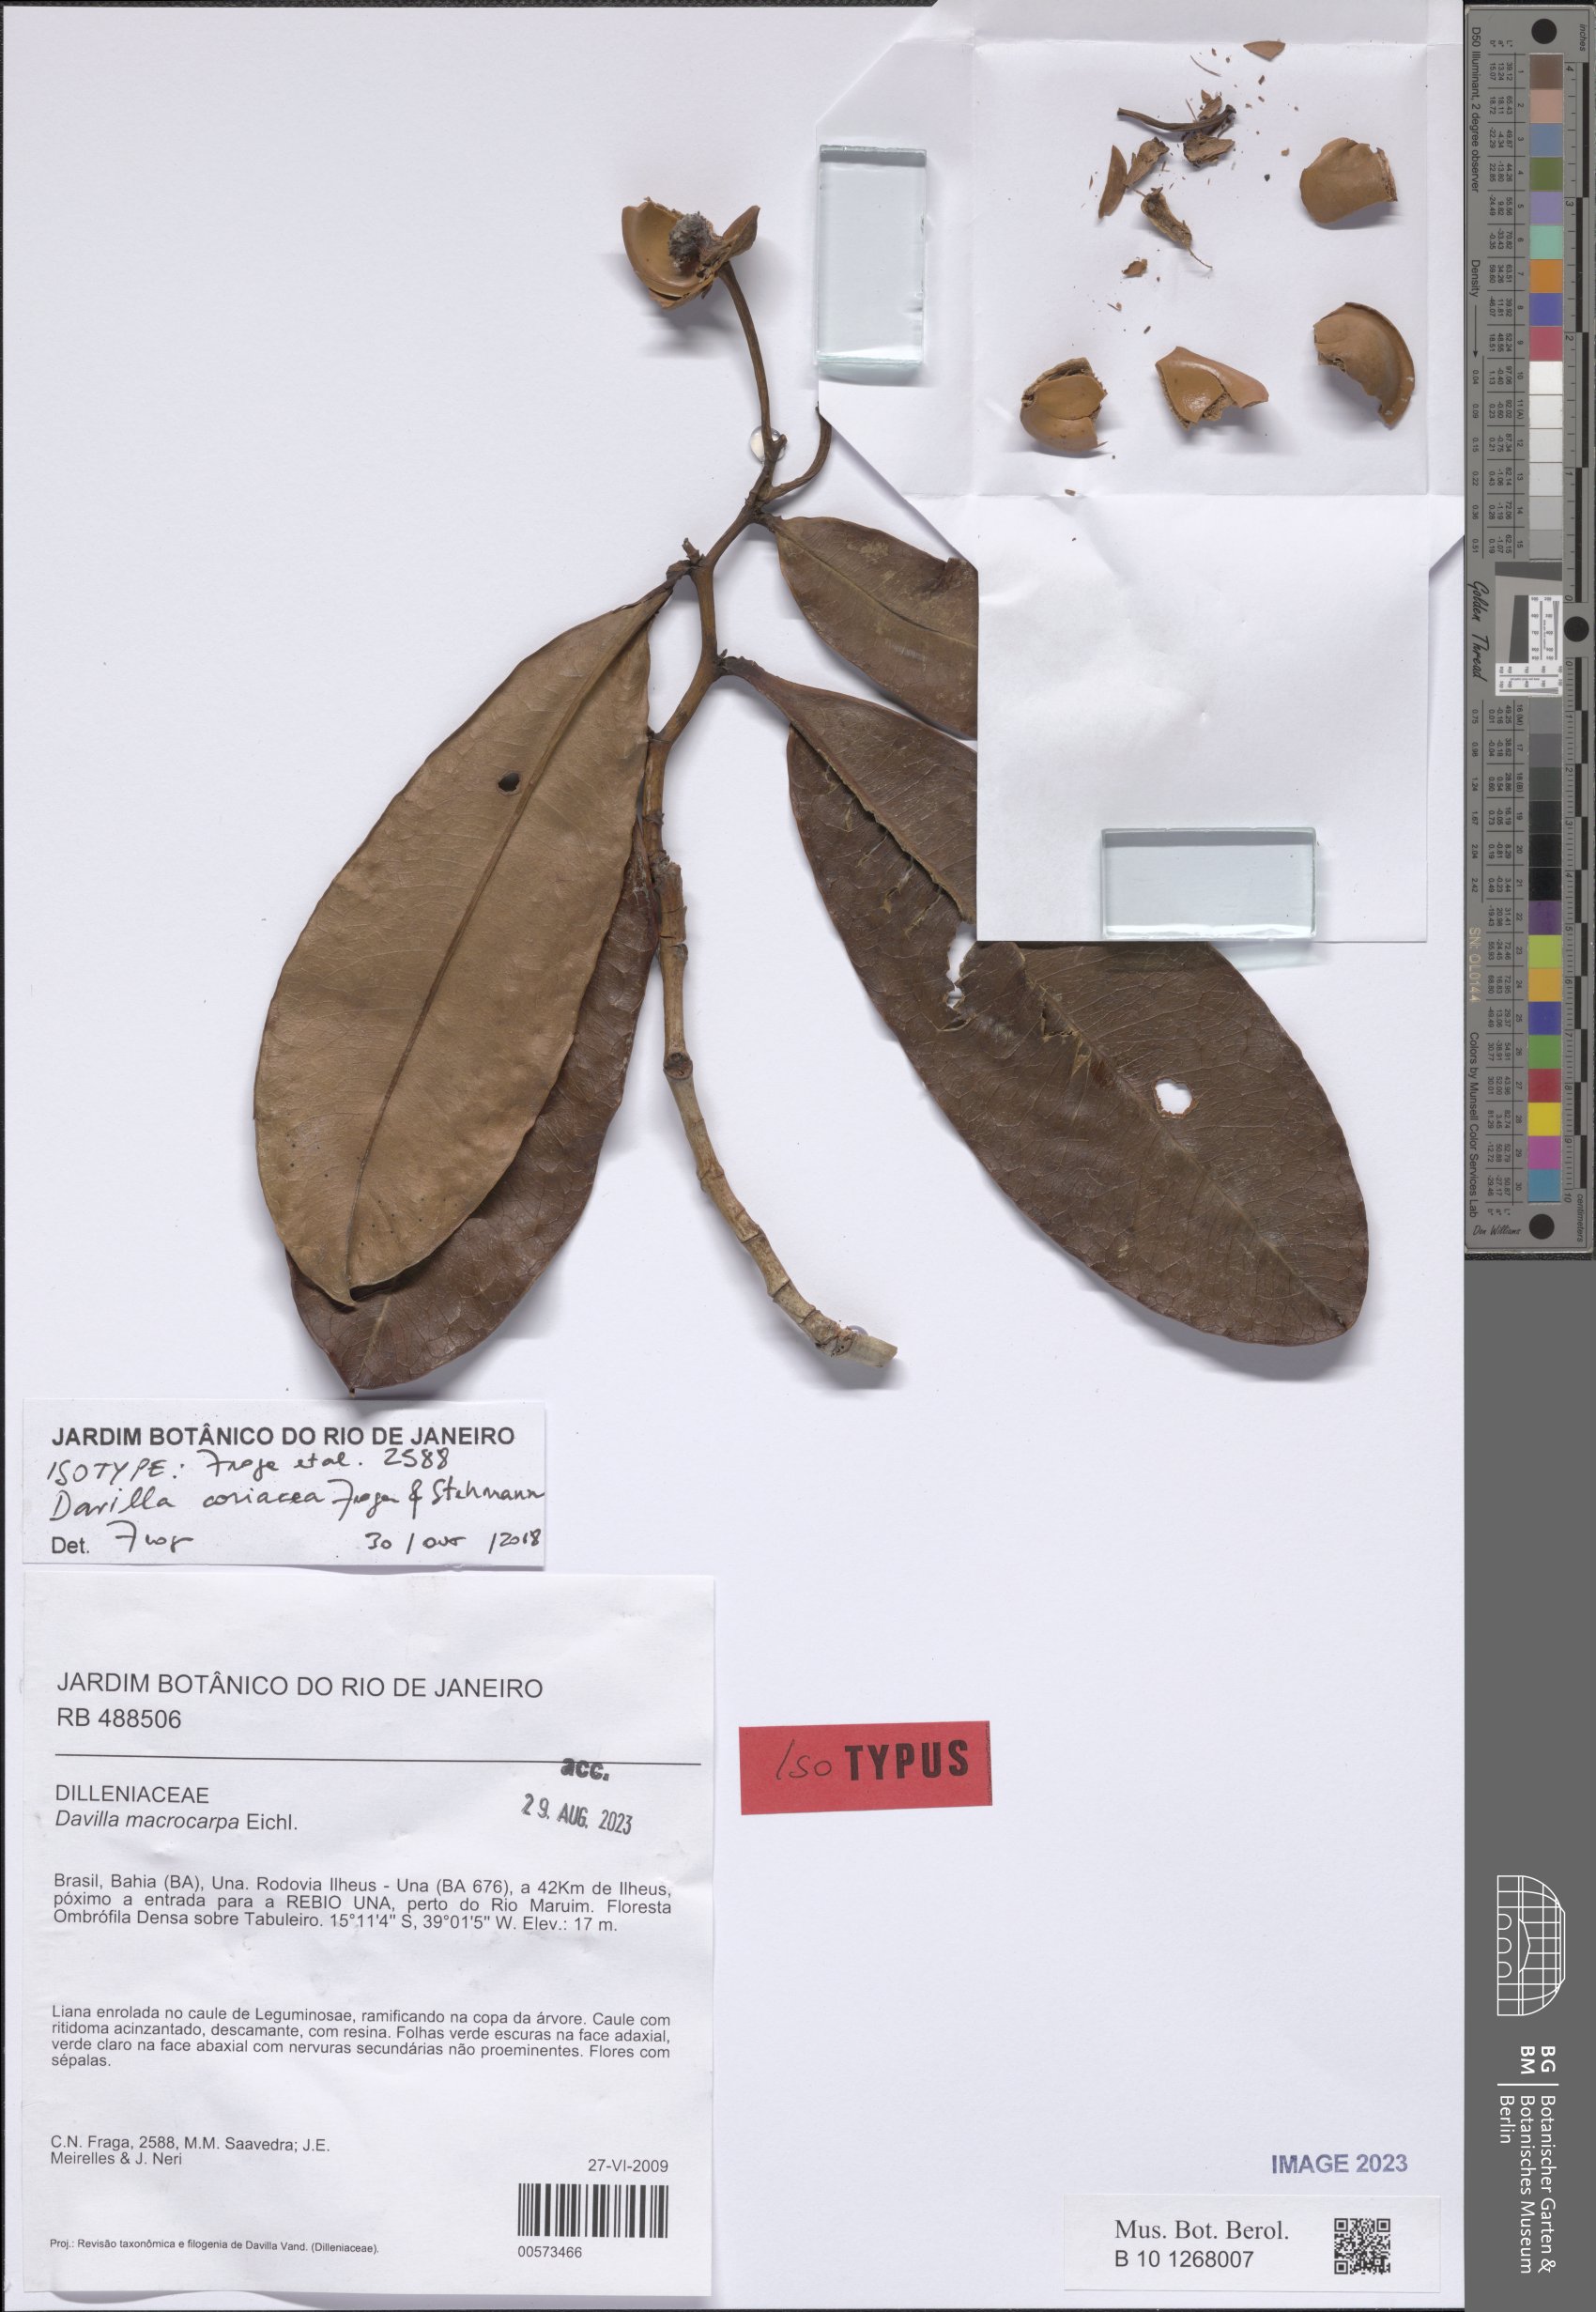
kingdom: Plantae
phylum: Tracheophyta
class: Magnoliopsida
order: Dilleniales
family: Dilleniaceae
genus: Davilla
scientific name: Davilla coriacea
